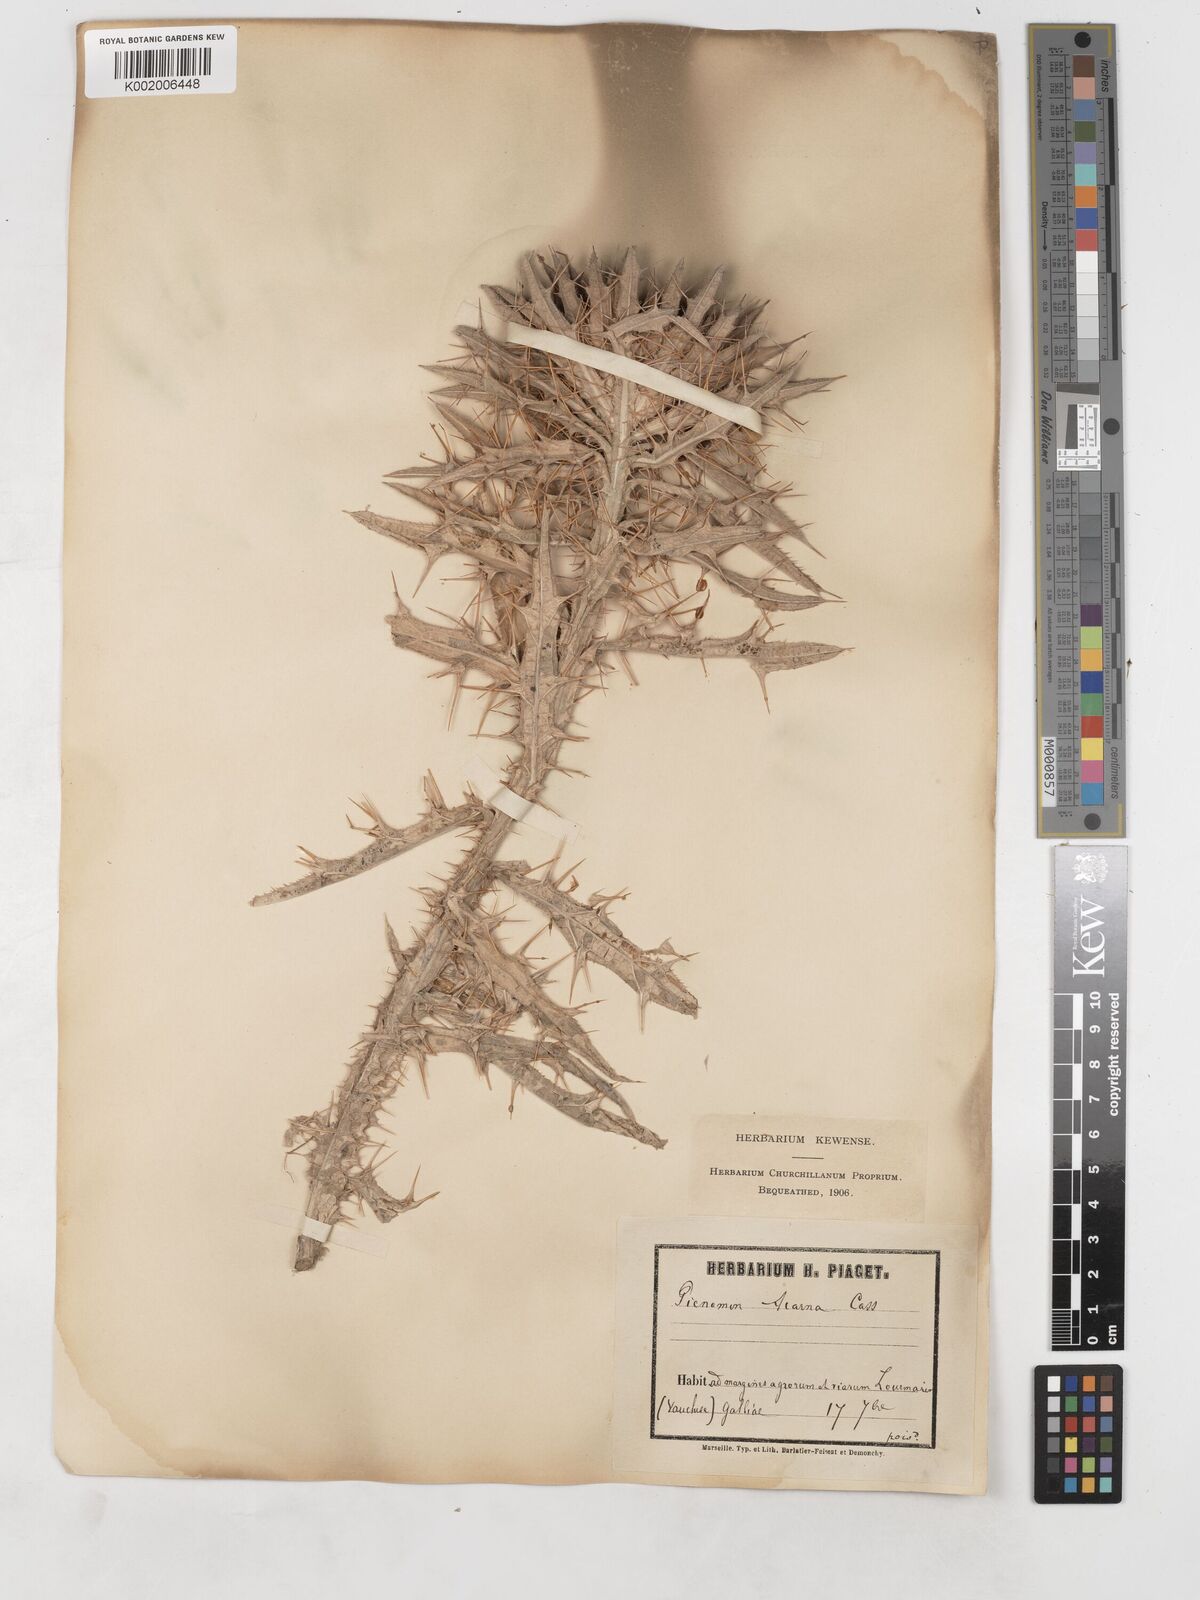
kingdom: Plantae
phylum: Tracheophyta
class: Magnoliopsida
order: Asterales
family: Asteraceae
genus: Picnomon
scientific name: Picnomon acarna
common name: Soldier thistle
